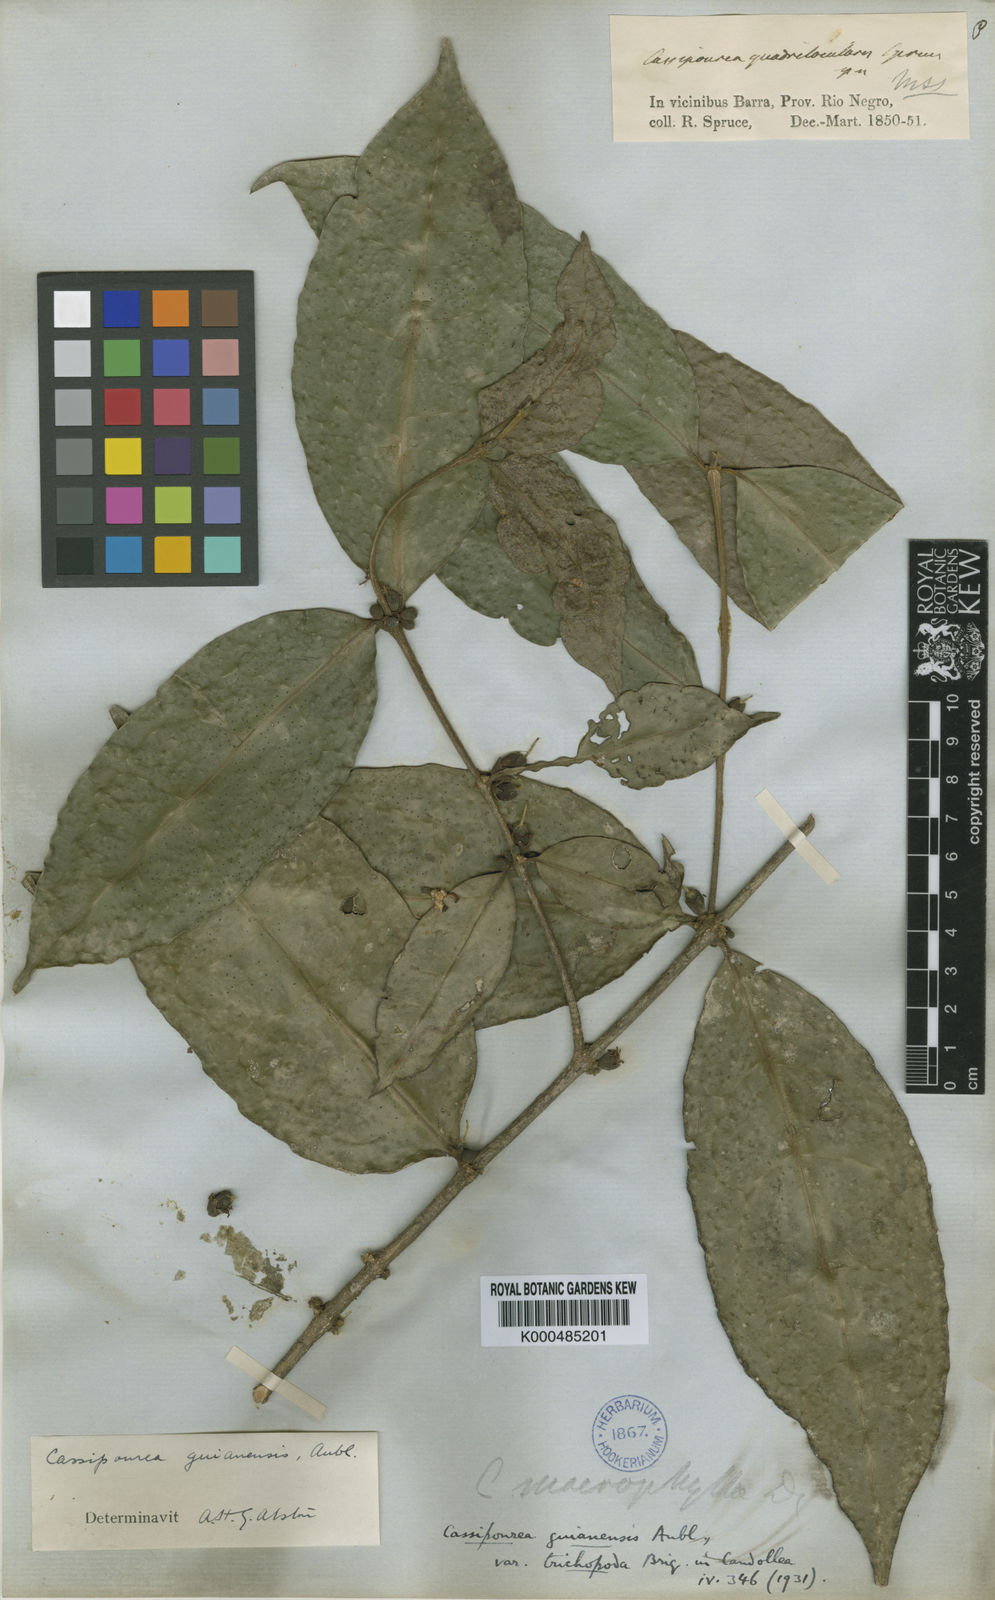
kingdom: Plantae
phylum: Tracheophyta
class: Magnoliopsida
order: Malpighiales
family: Rhizophoraceae
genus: Cassipourea
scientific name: Cassipourea guianensis
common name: Bastard waterwood
